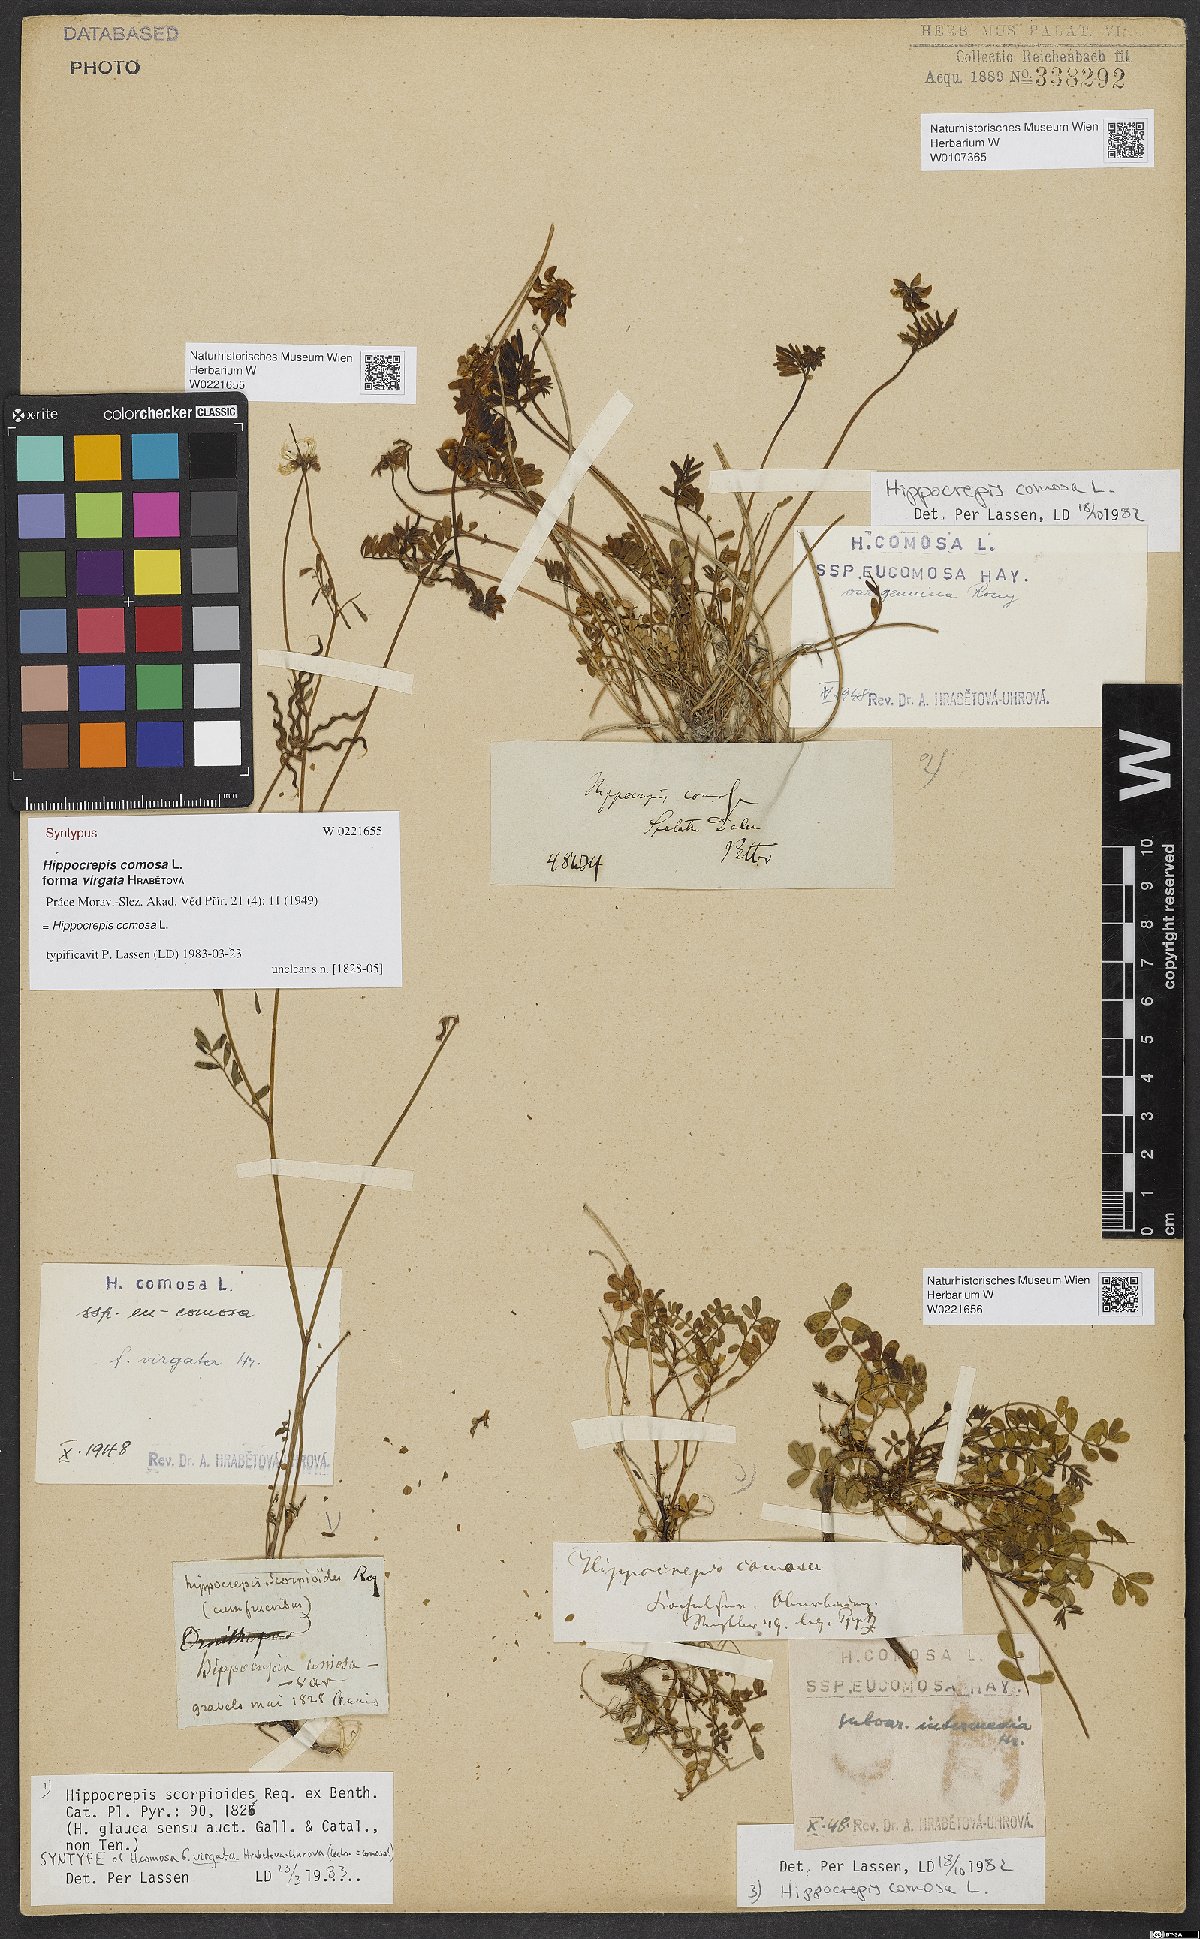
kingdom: Plantae
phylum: Tracheophyta
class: Magnoliopsida
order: Fabales
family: Fabaceae
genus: Hippocrepis
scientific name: Hippocrepis comosa
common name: Horseshoe vetch
